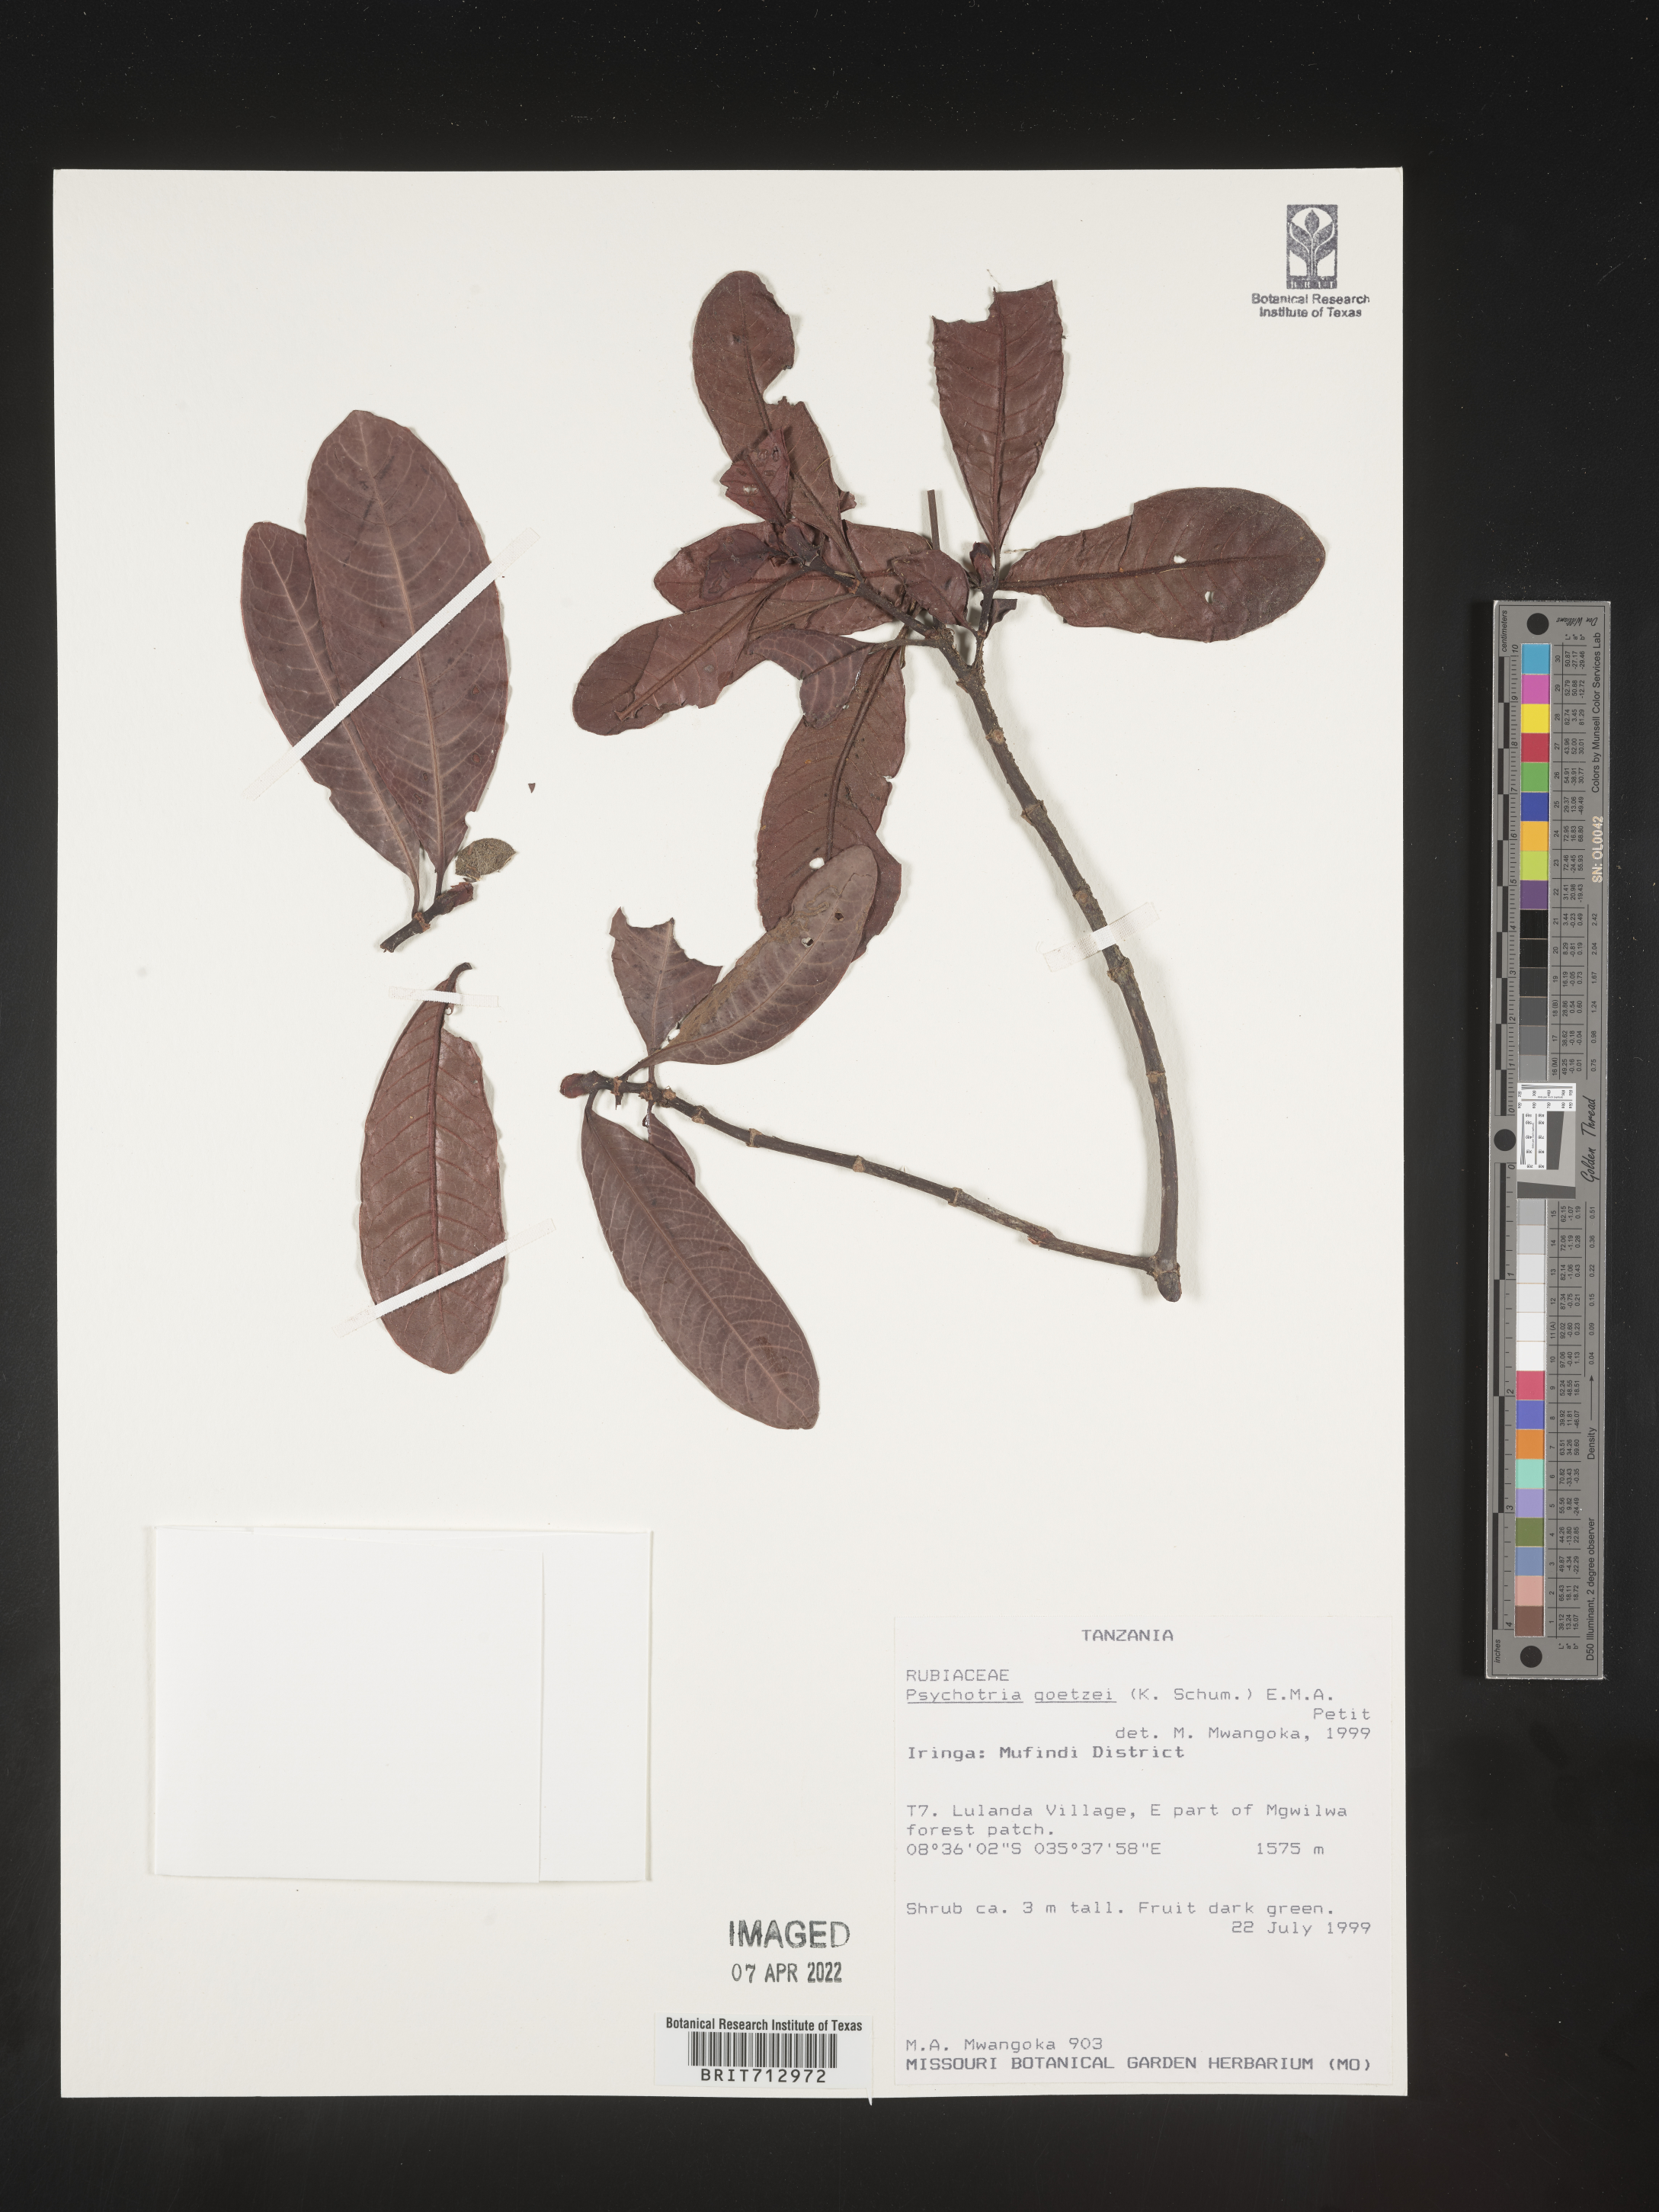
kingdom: Plantae
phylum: Tracheophyta
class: Magnoliopsida
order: Gentianales
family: Rubiaceae
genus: Psychotria
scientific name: Psychotria
